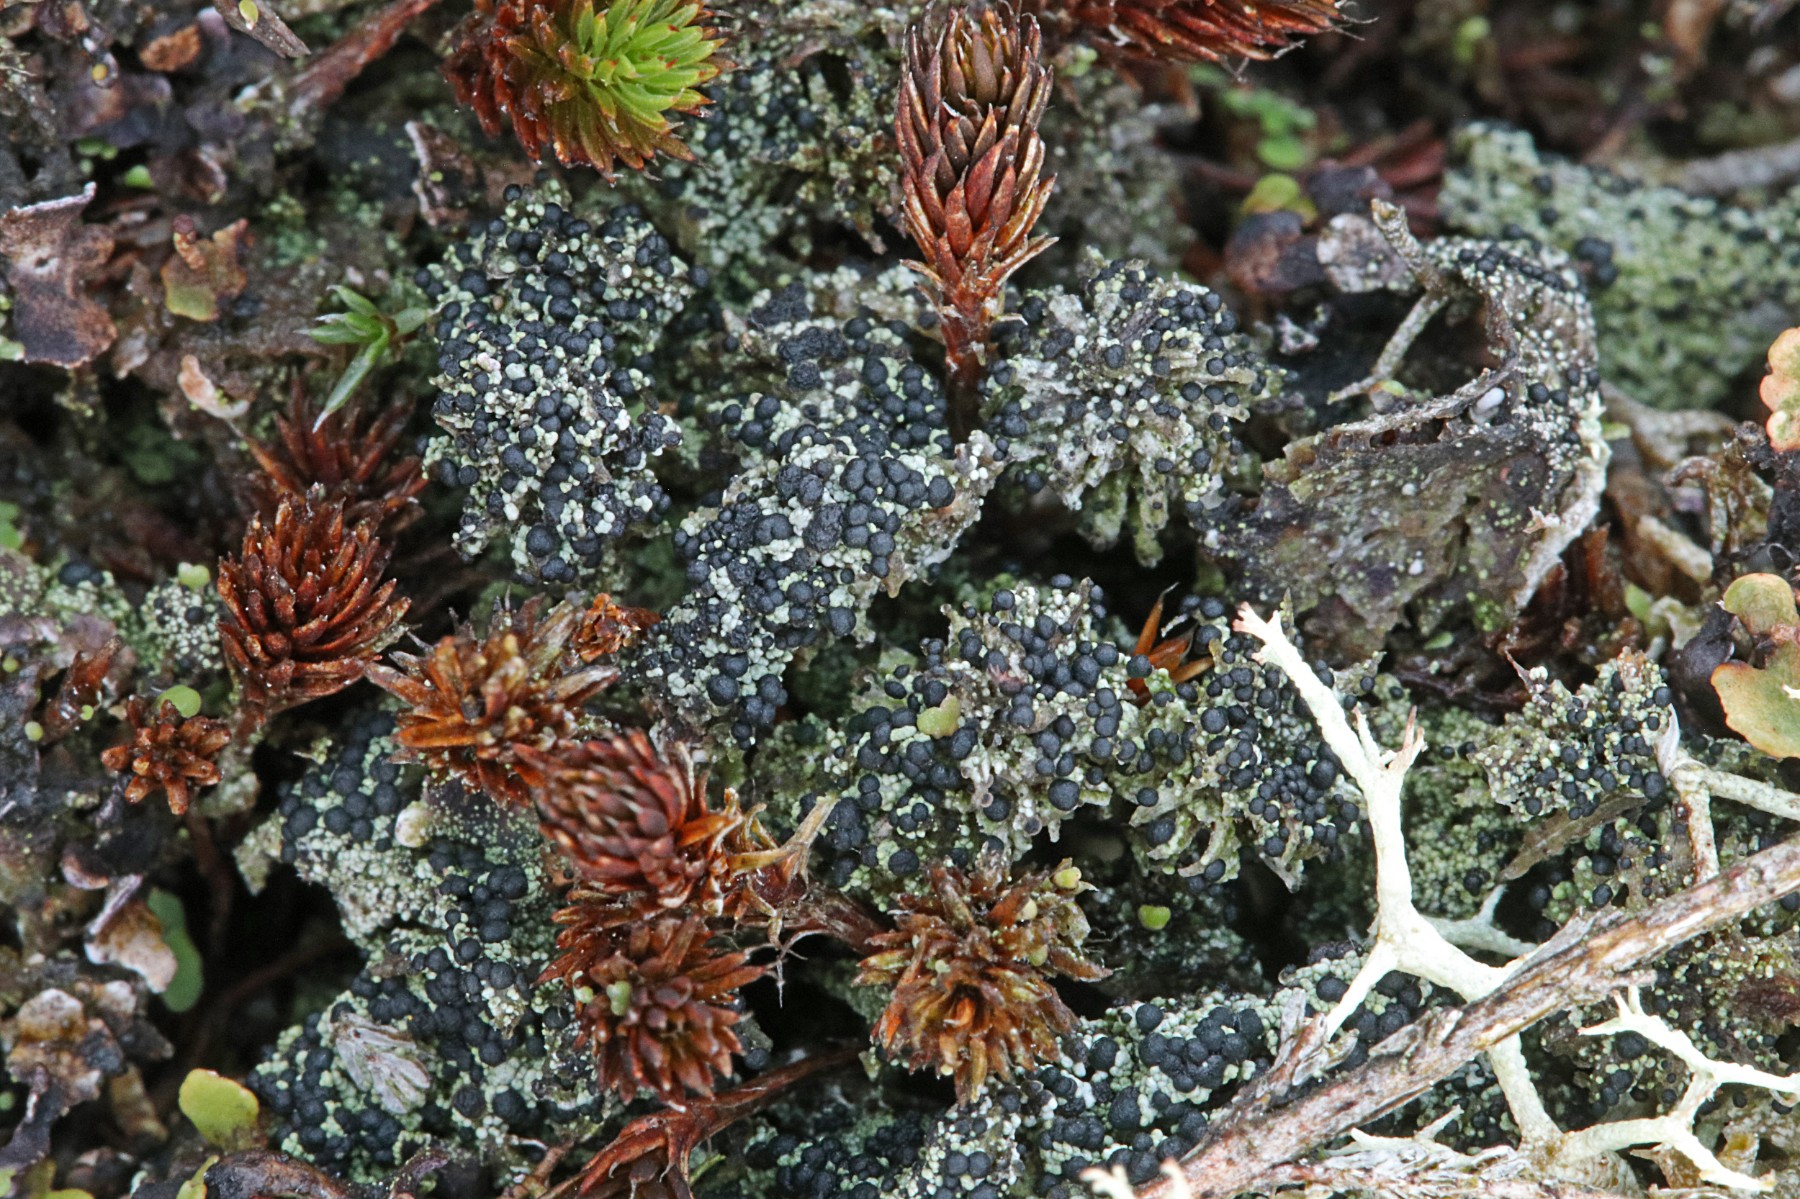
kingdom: Fungi
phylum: Ascomycota
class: Lecanoromycetes
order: Lecanorales
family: Byssolomataceae
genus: Micarea
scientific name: Micarea lignaria
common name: tørve-knaplav
